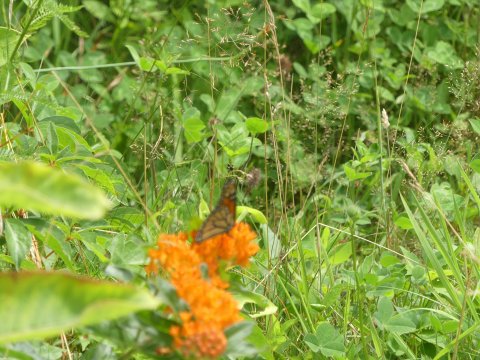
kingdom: Animalia
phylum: Arthropoda
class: Insecta
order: Lepidoptera
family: Nymphalidae
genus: Danaus
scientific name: Danaus plexippus
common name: Monarch
